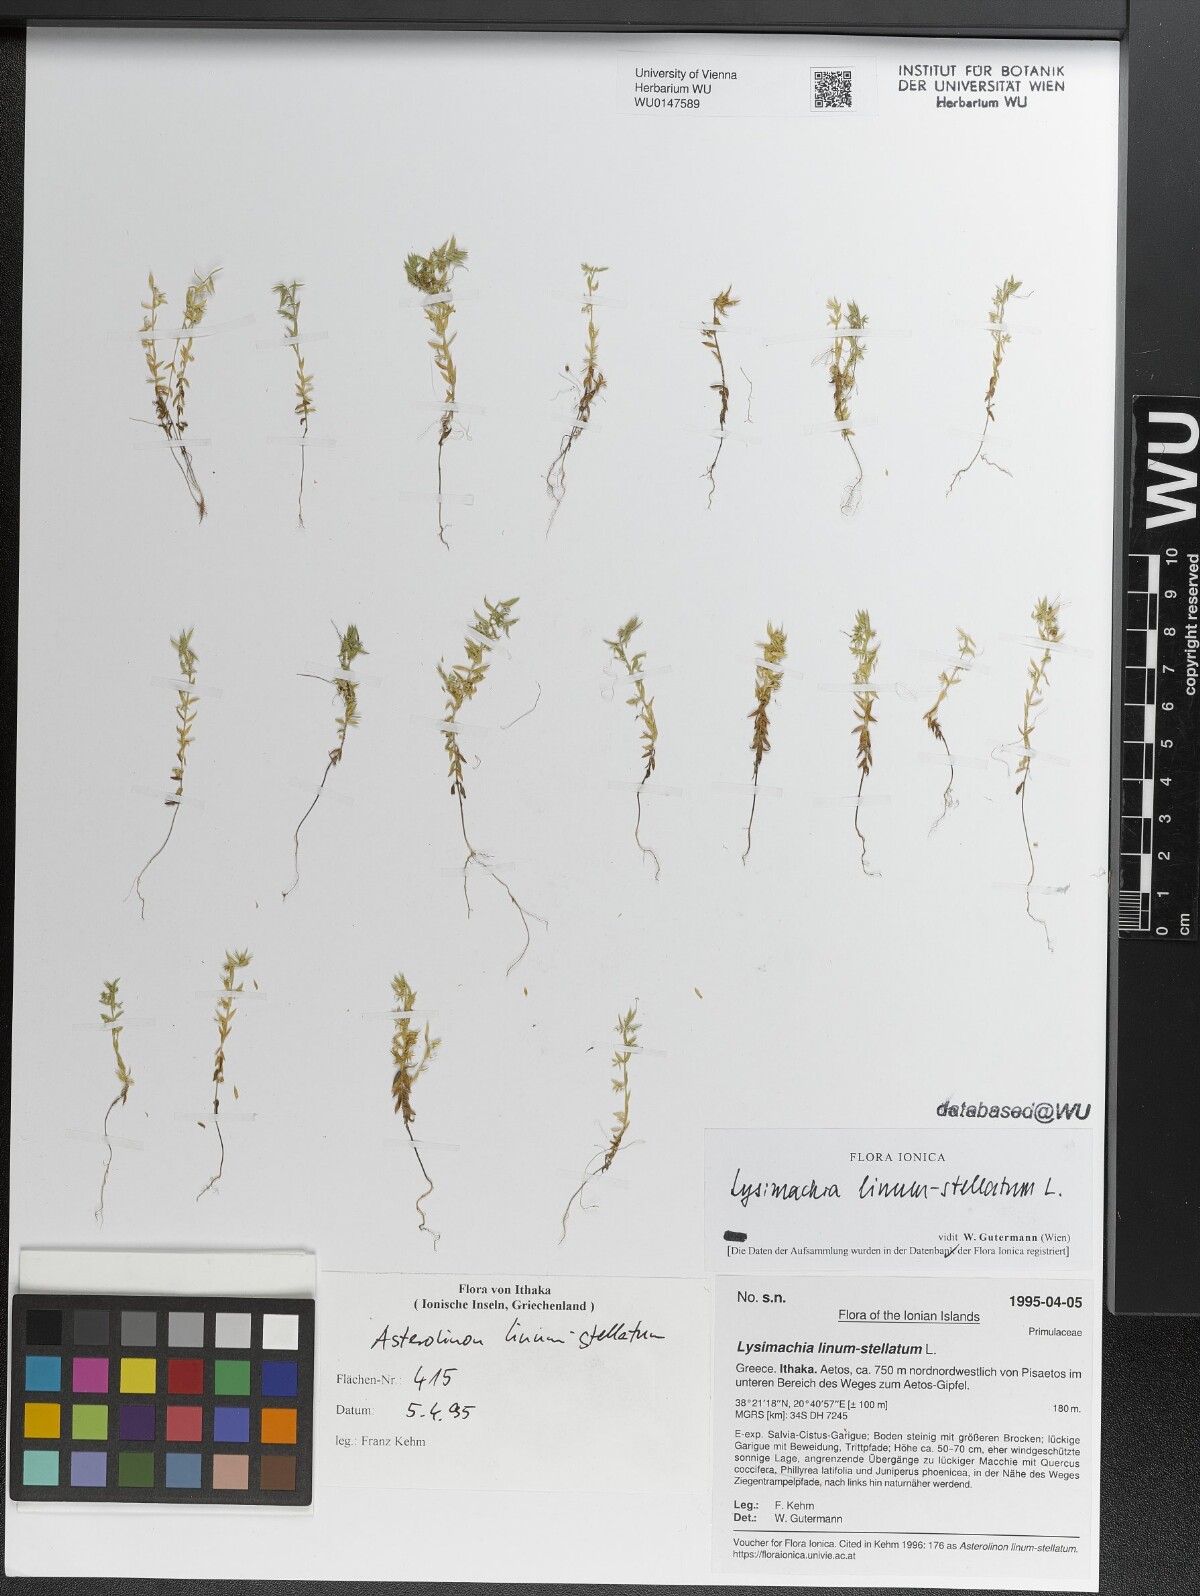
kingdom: Plantae
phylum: Tracheophyta
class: Magnoliopsida
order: Ericales
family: Primulaceae
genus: Lysimachia
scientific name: Lysimachia linum-stellatum
